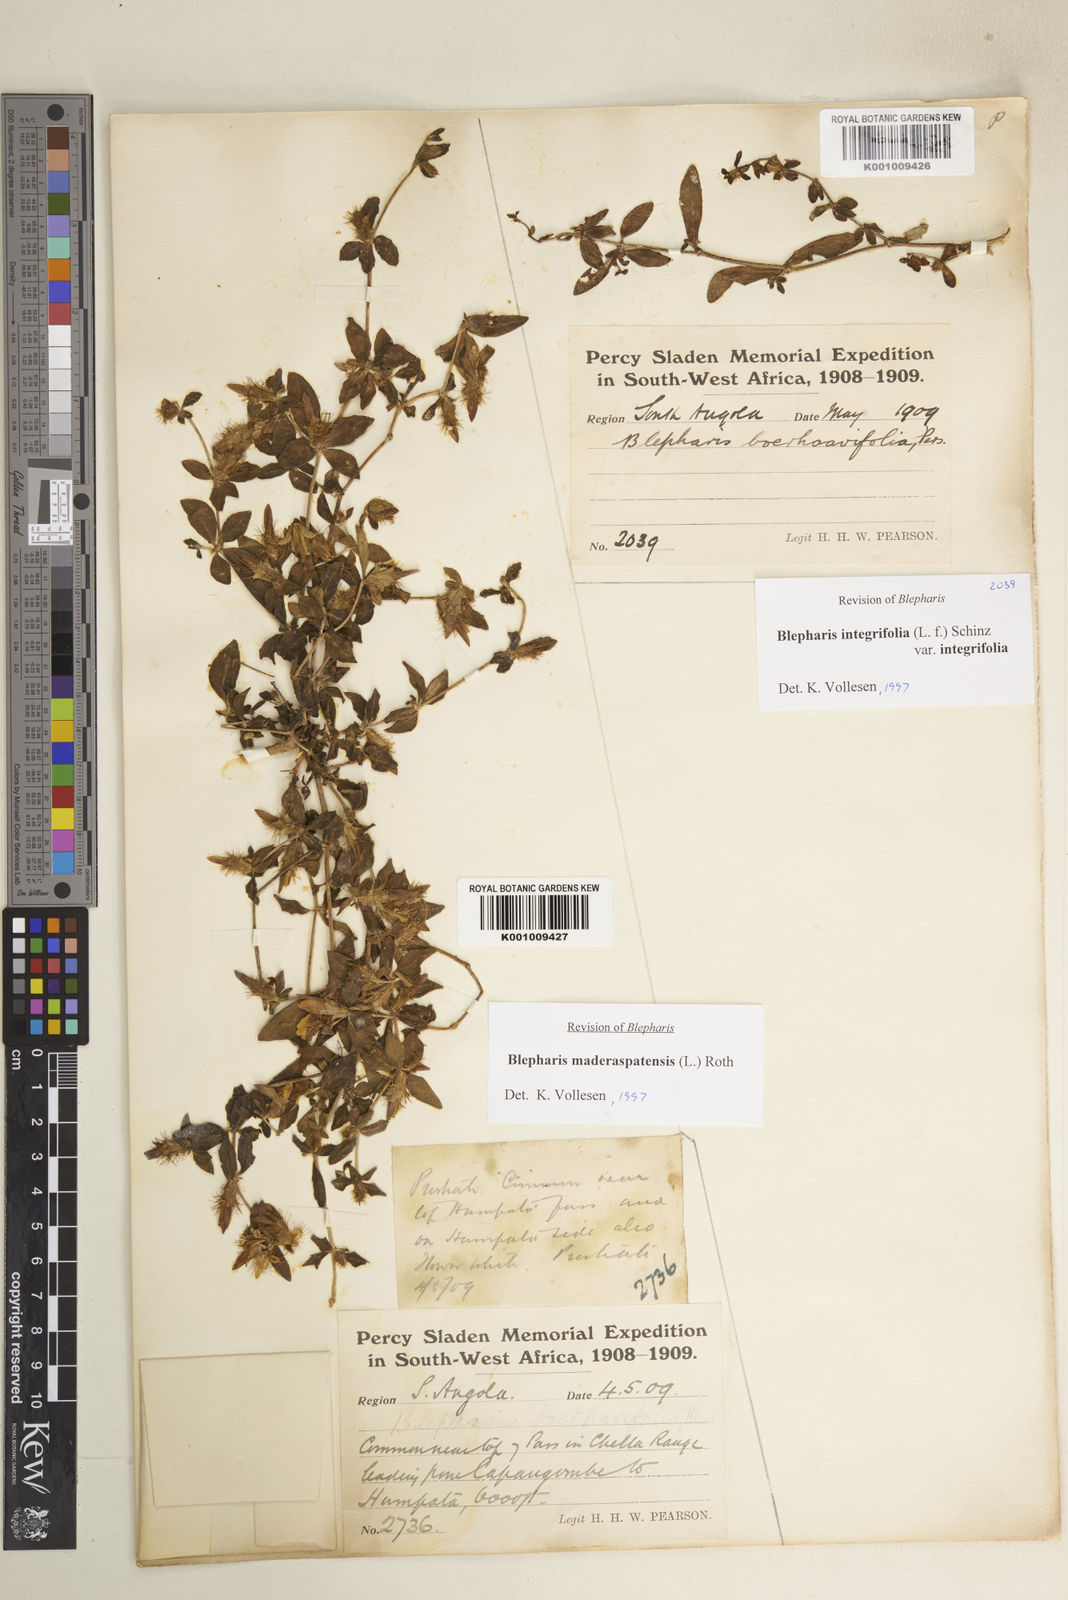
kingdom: Plantae
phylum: Tracheophyta
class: Magnoliopsida
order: Lamiales
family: Acanthaceae
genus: Blepharis
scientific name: Blepharis maderaspatensis
